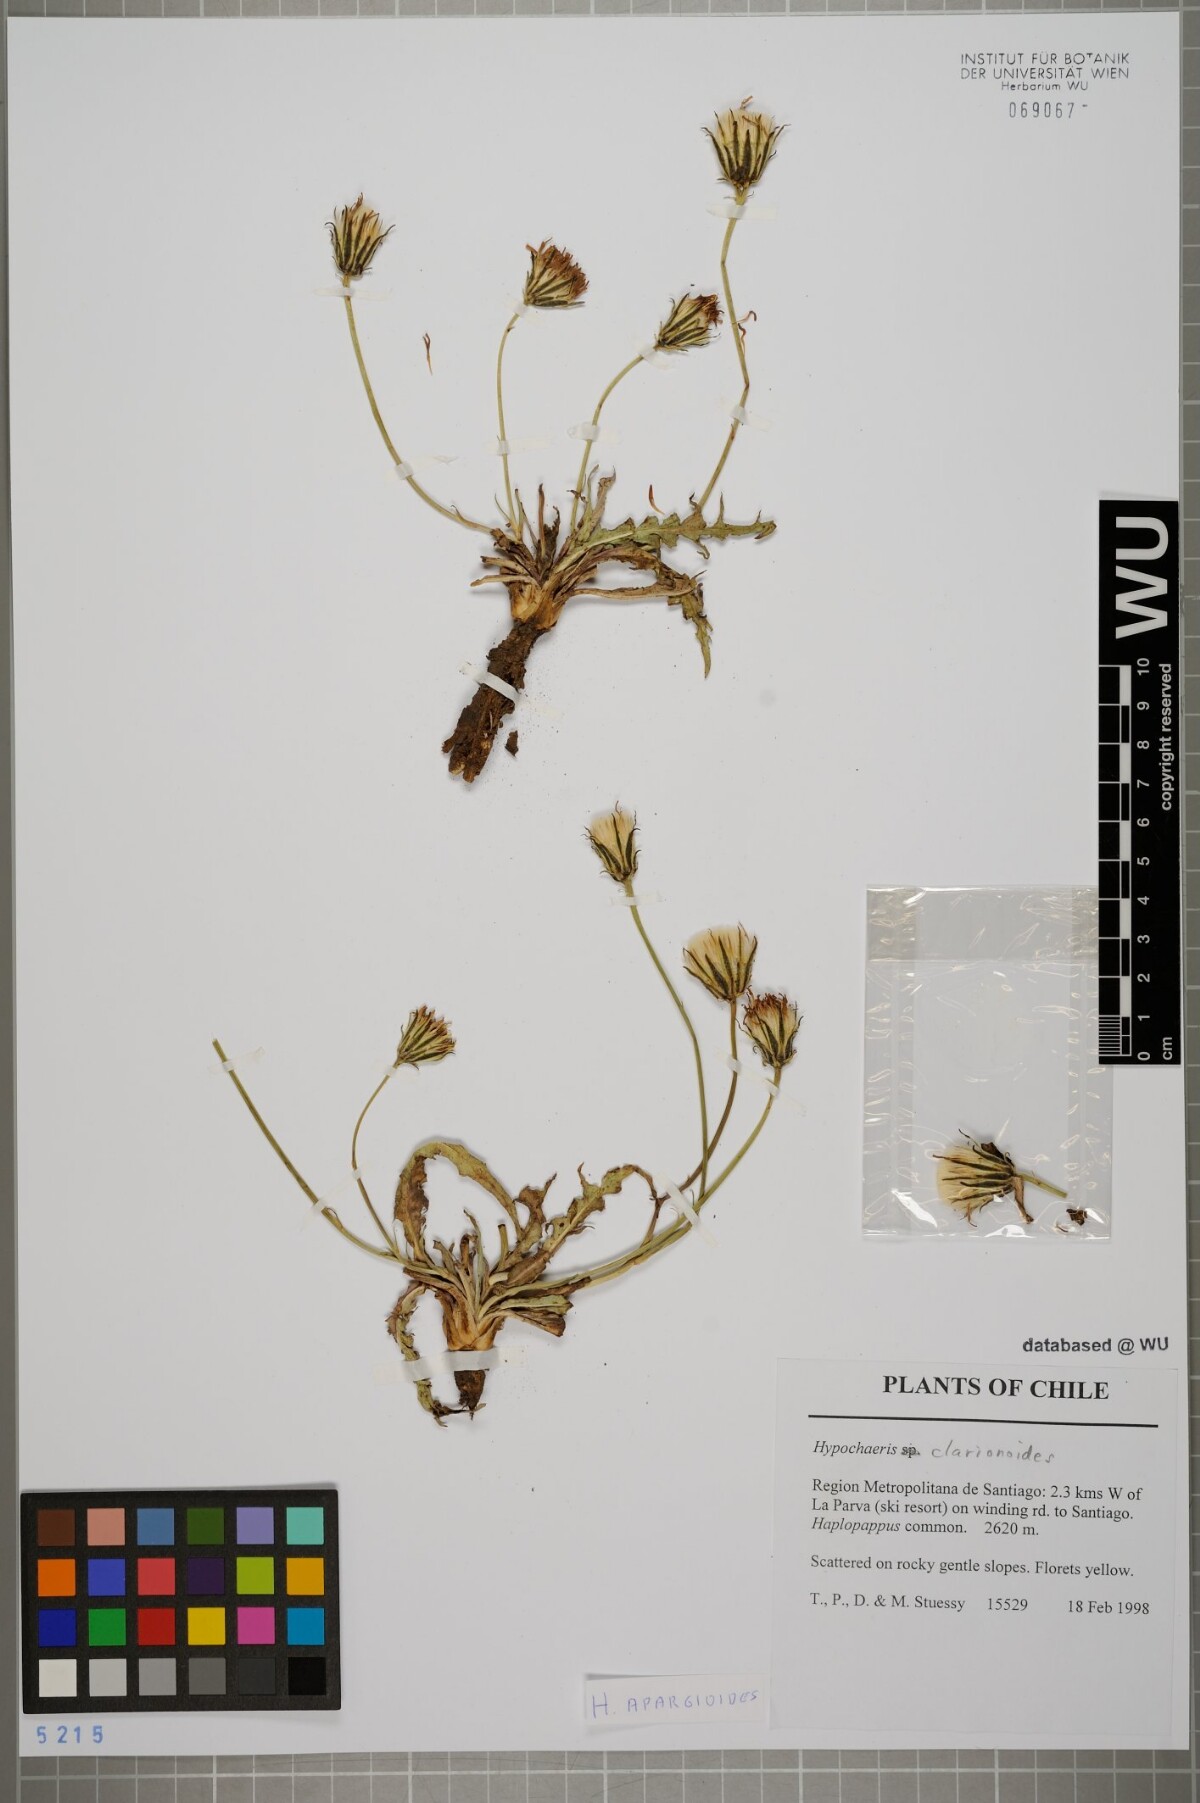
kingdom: Plantae
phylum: Tracheophyta
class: Magnoliopsida
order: Asterales
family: Asteraceae
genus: Hypochaeris
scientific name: Hypochaeris clarionoides
